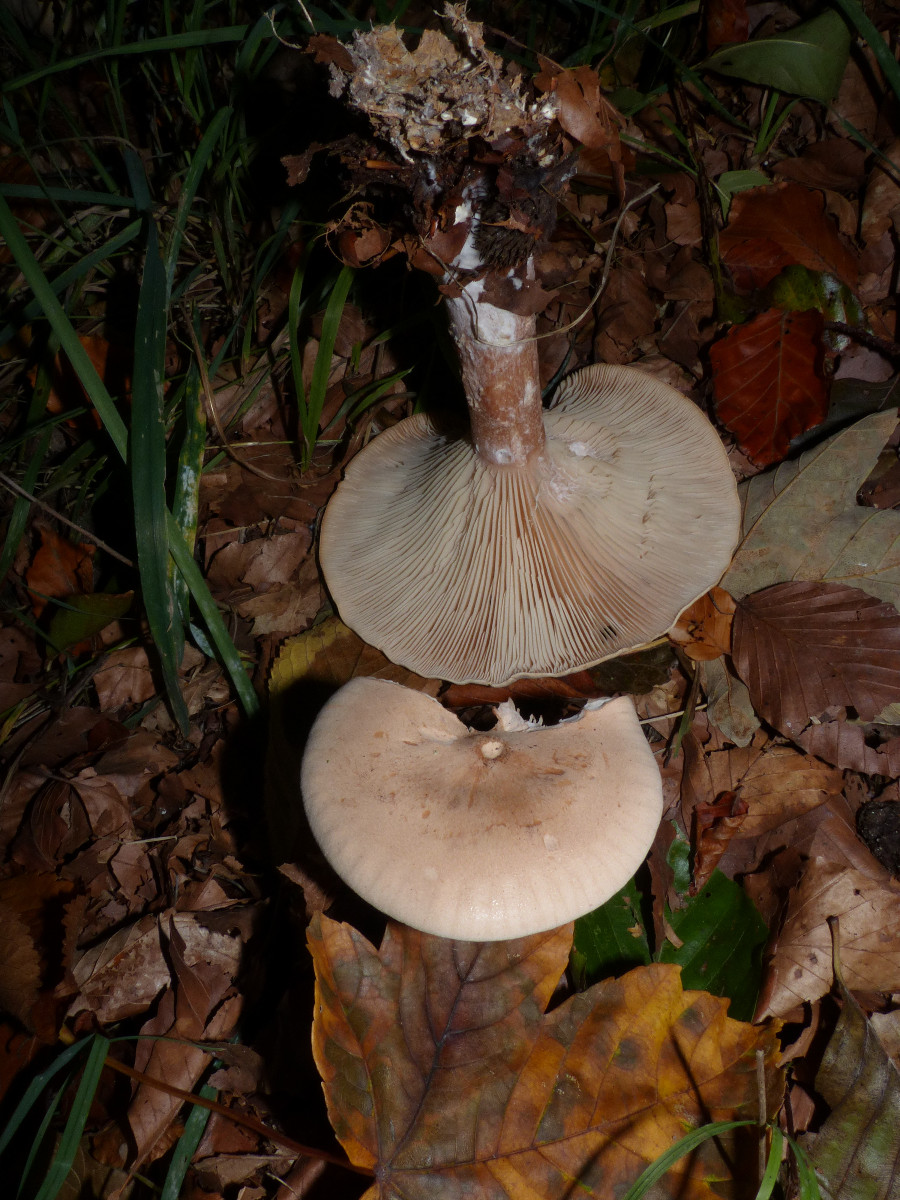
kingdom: Fungi
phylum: Basidiomycota
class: Agaricomycetes
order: Agaricales
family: Tricholomataceae
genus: Infundibulicybe
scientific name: Infundibulicybe geotropa
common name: stor tragthat
